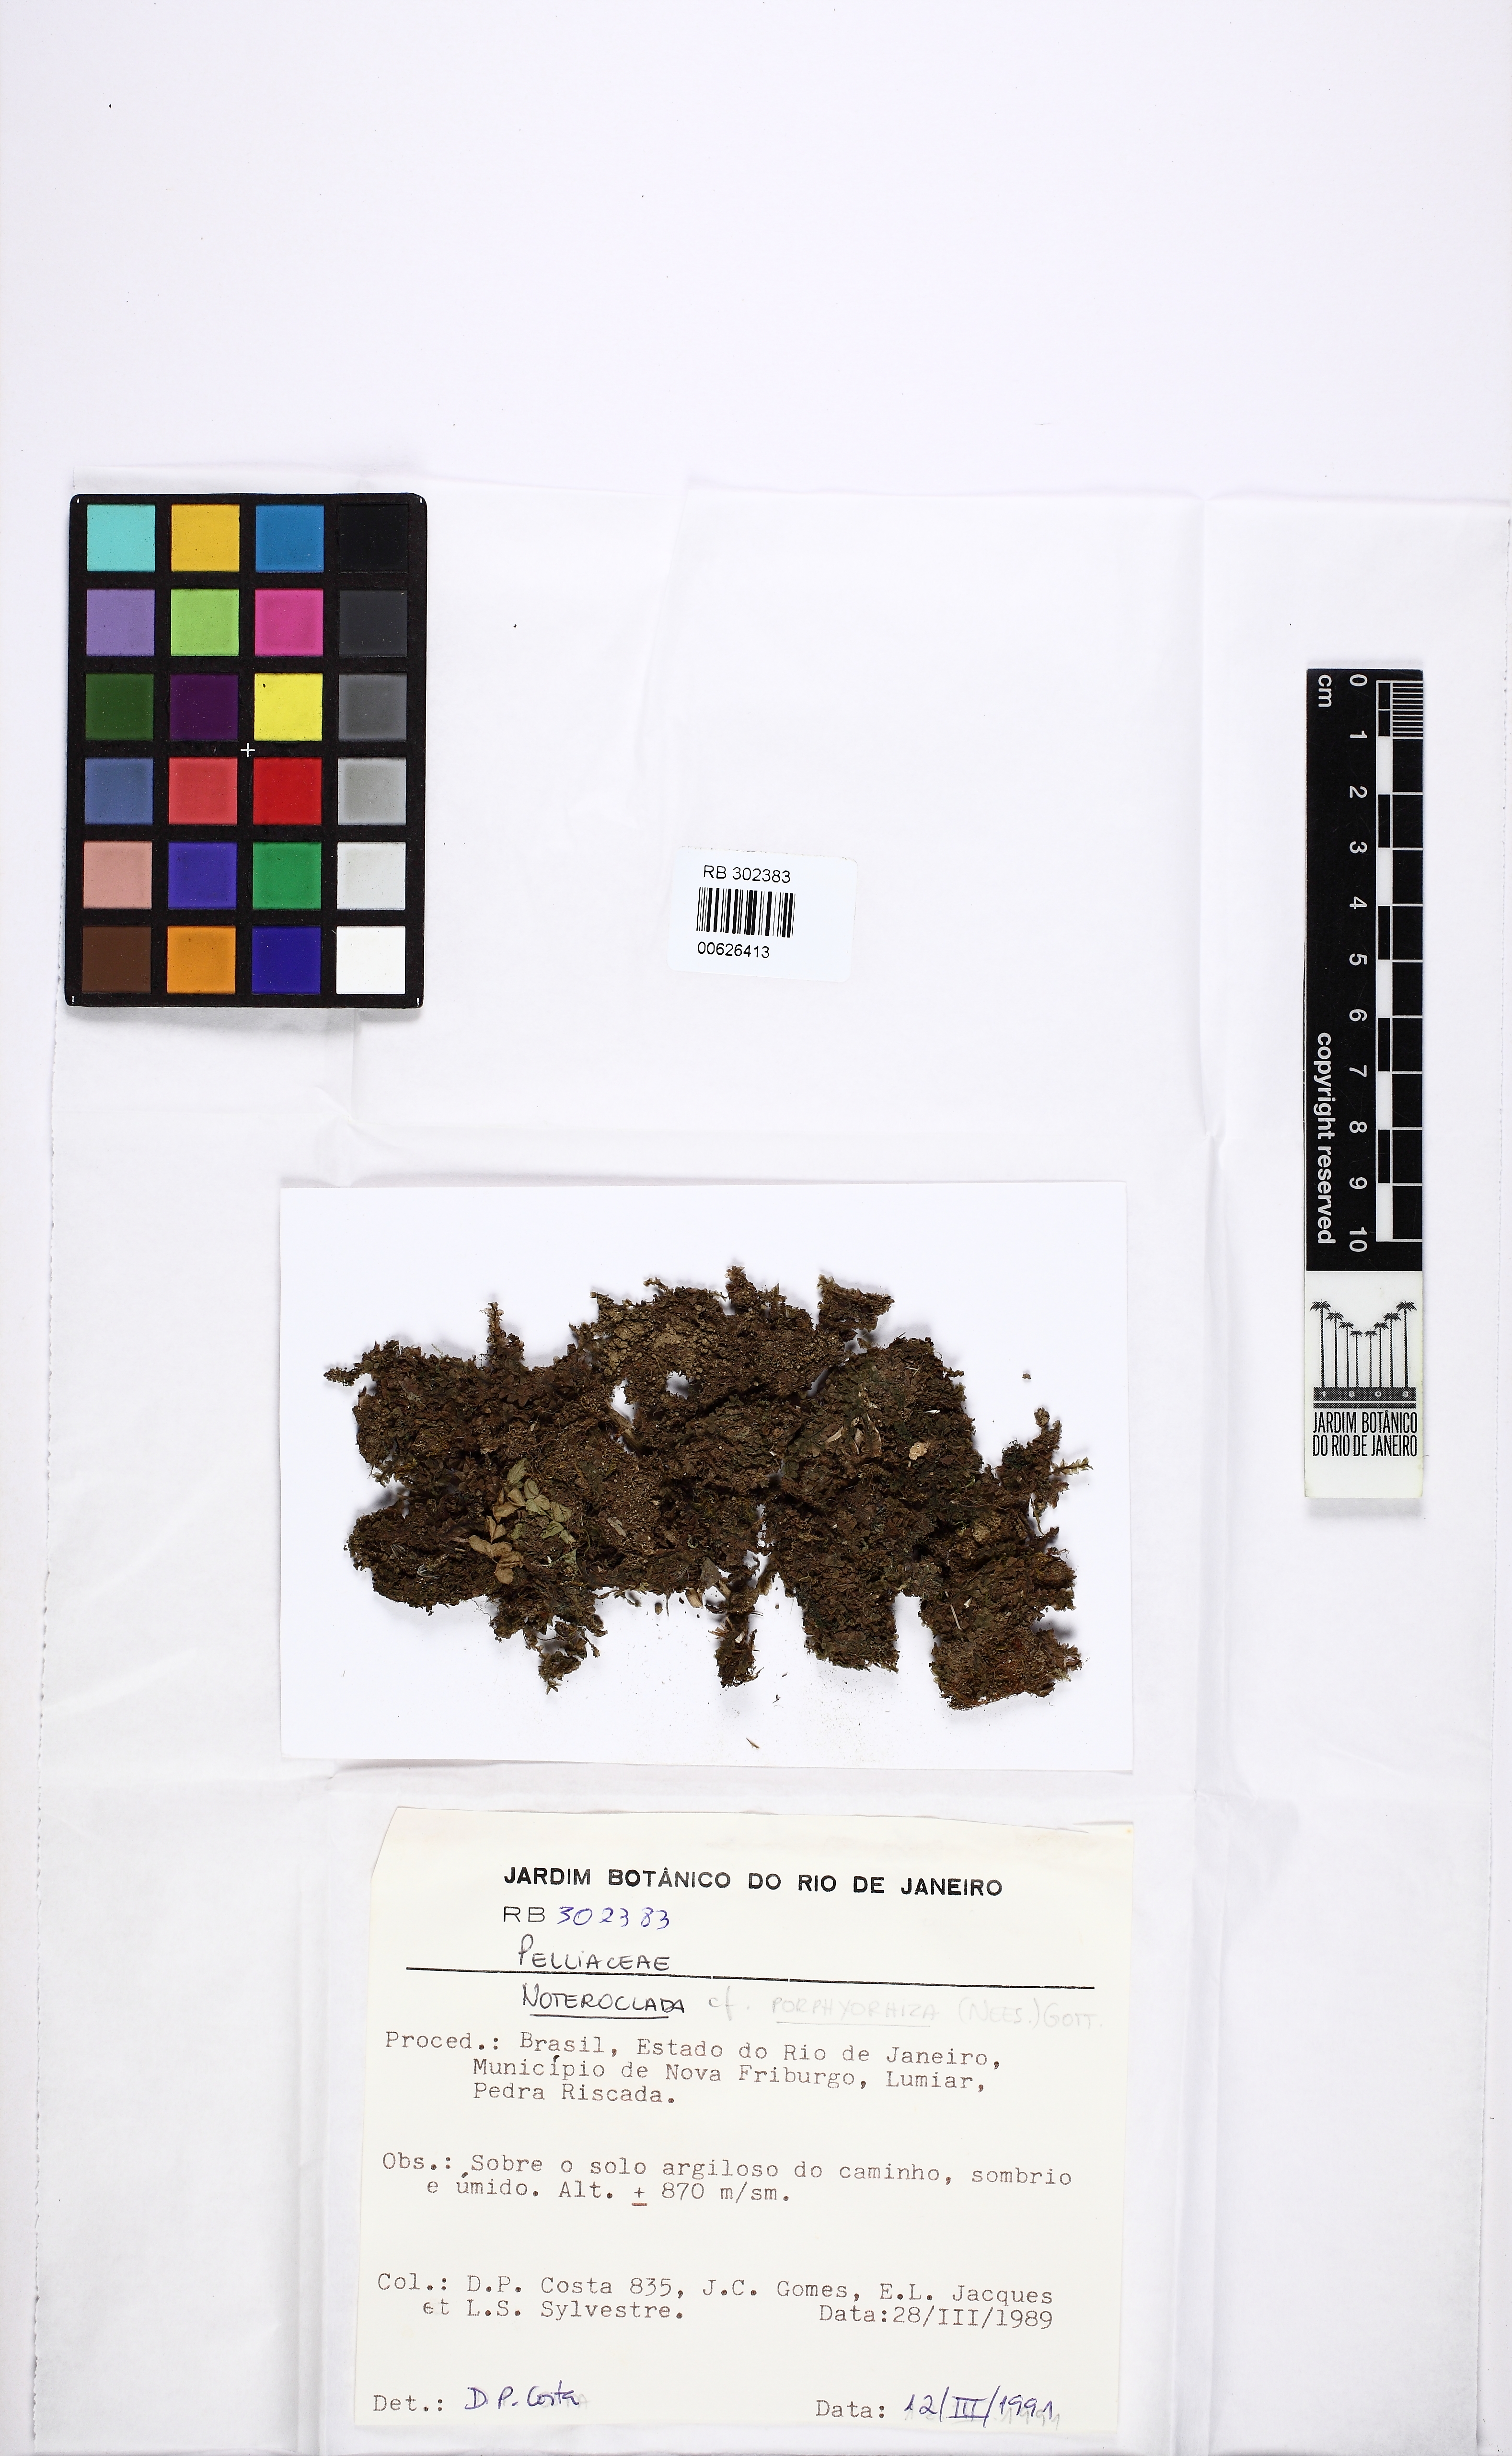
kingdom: Plantae
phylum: Marchantiophyta
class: Jungermanniopsida
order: Fossombroniales
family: Fossombroniaceae
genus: Fossombronia
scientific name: Fossombronia porphyrorhiza
